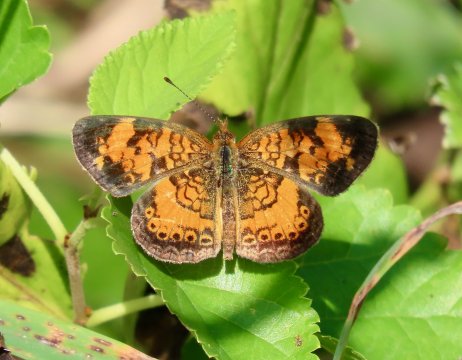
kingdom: Animalia
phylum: Arthropoda
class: Insecta
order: Lepidoptera
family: Nymphalidae
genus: Phyciodes
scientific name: Phyciodes tharos
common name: Pearl Crescent
